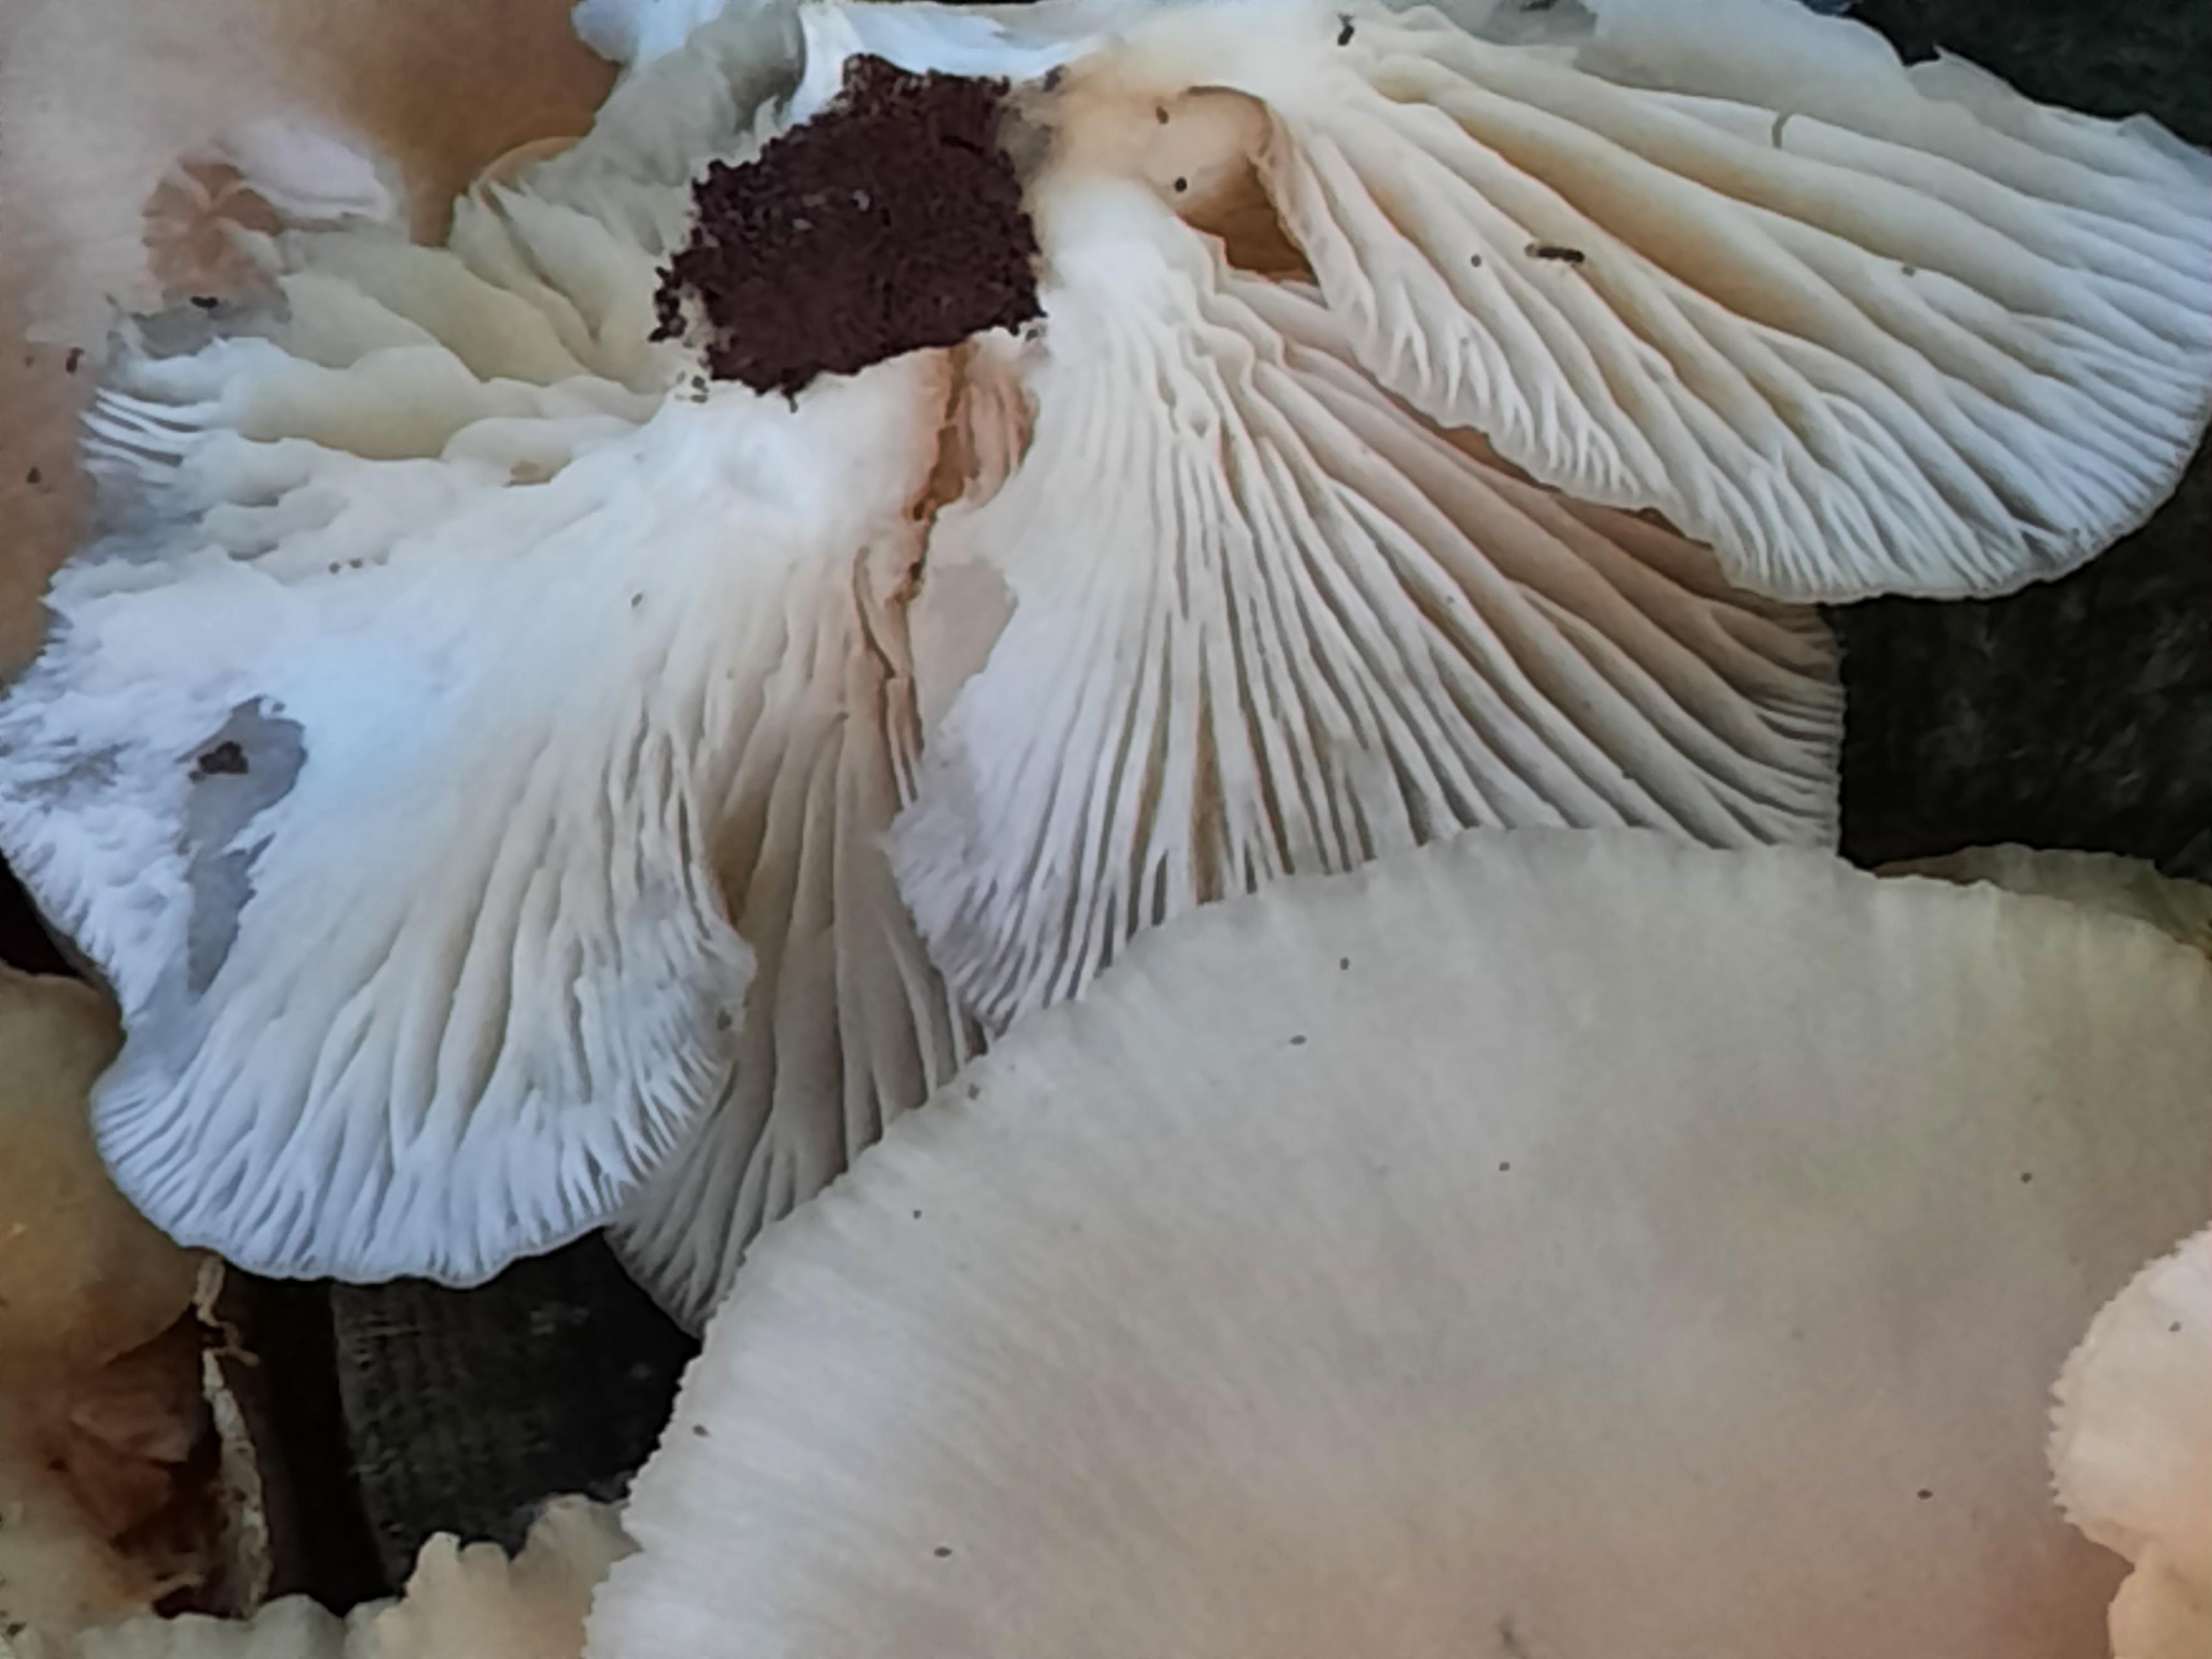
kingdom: Fungi
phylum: Basidiomycota
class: Agaricomycetes
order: Agaricales
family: Pleurotaceae
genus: Pleurotus
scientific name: Pleurotus pulmonarius
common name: sommer-østershat
